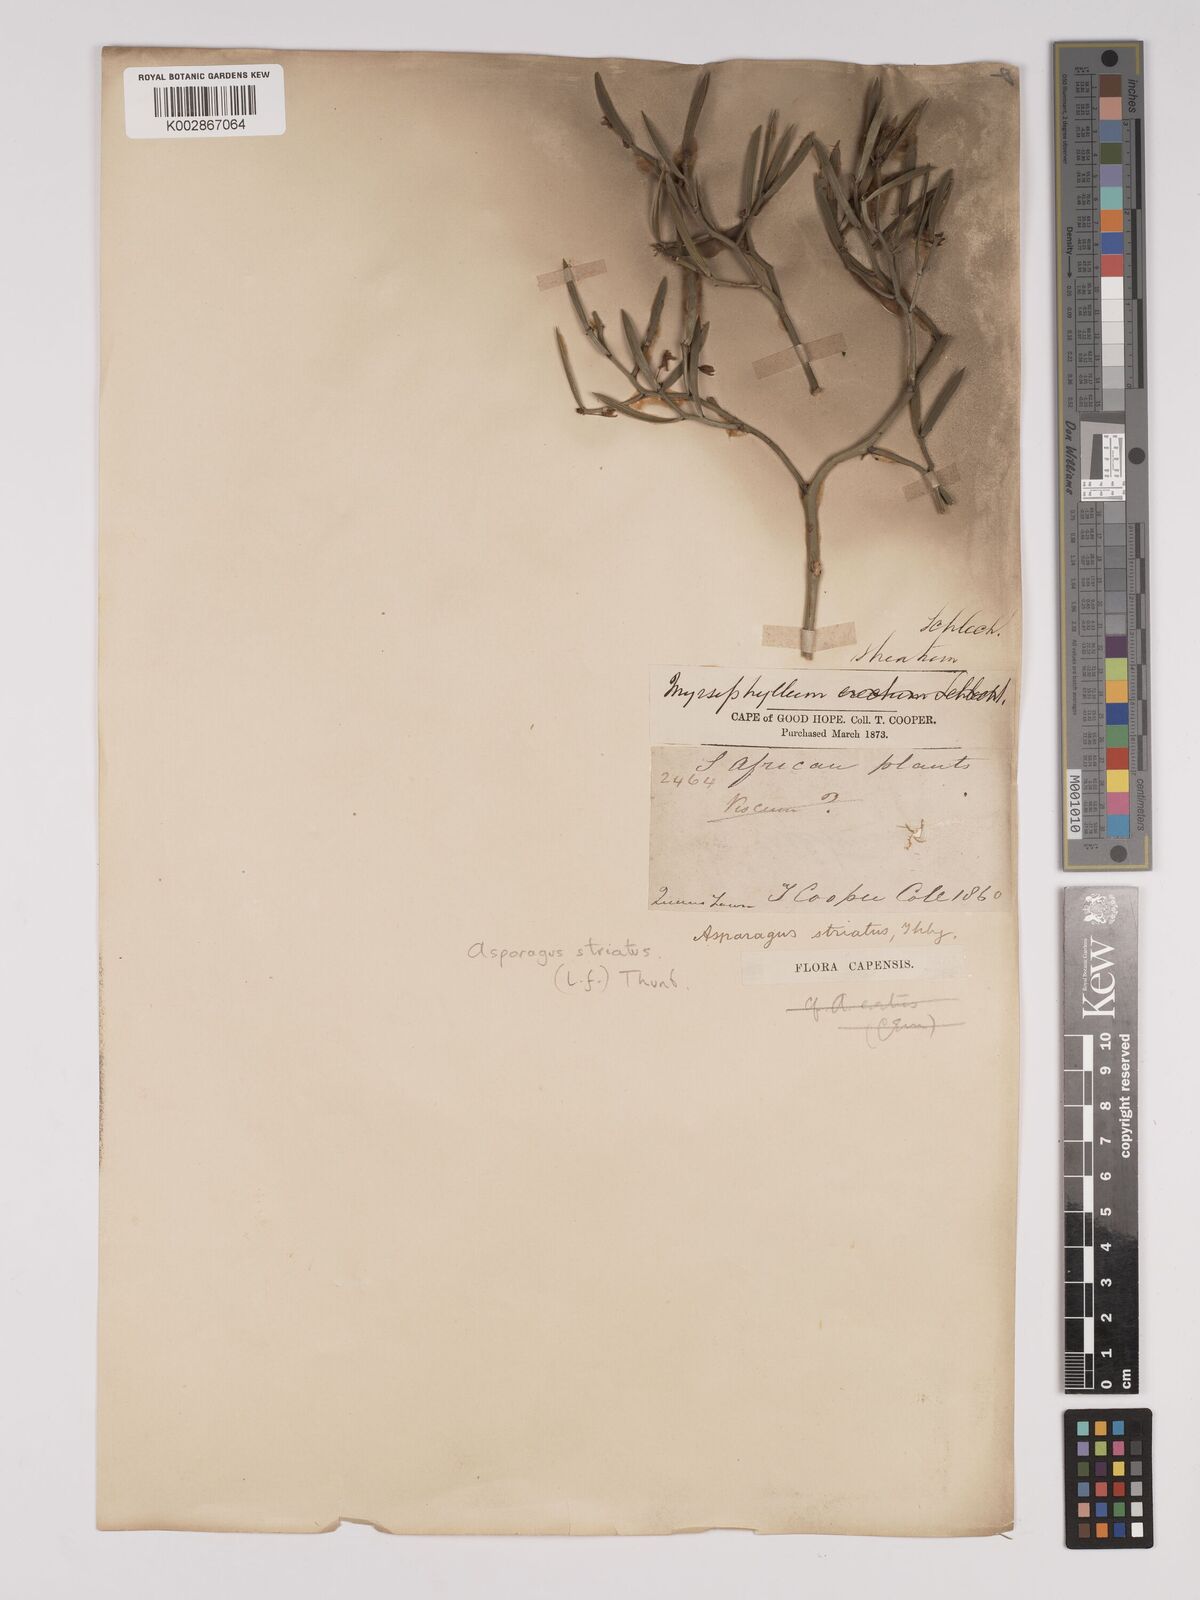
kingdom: Plantae
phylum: Tracheophyta
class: Liliopsida
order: Asparagales
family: Asparagaceae
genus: Asparagus
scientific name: Asparagus striatus
